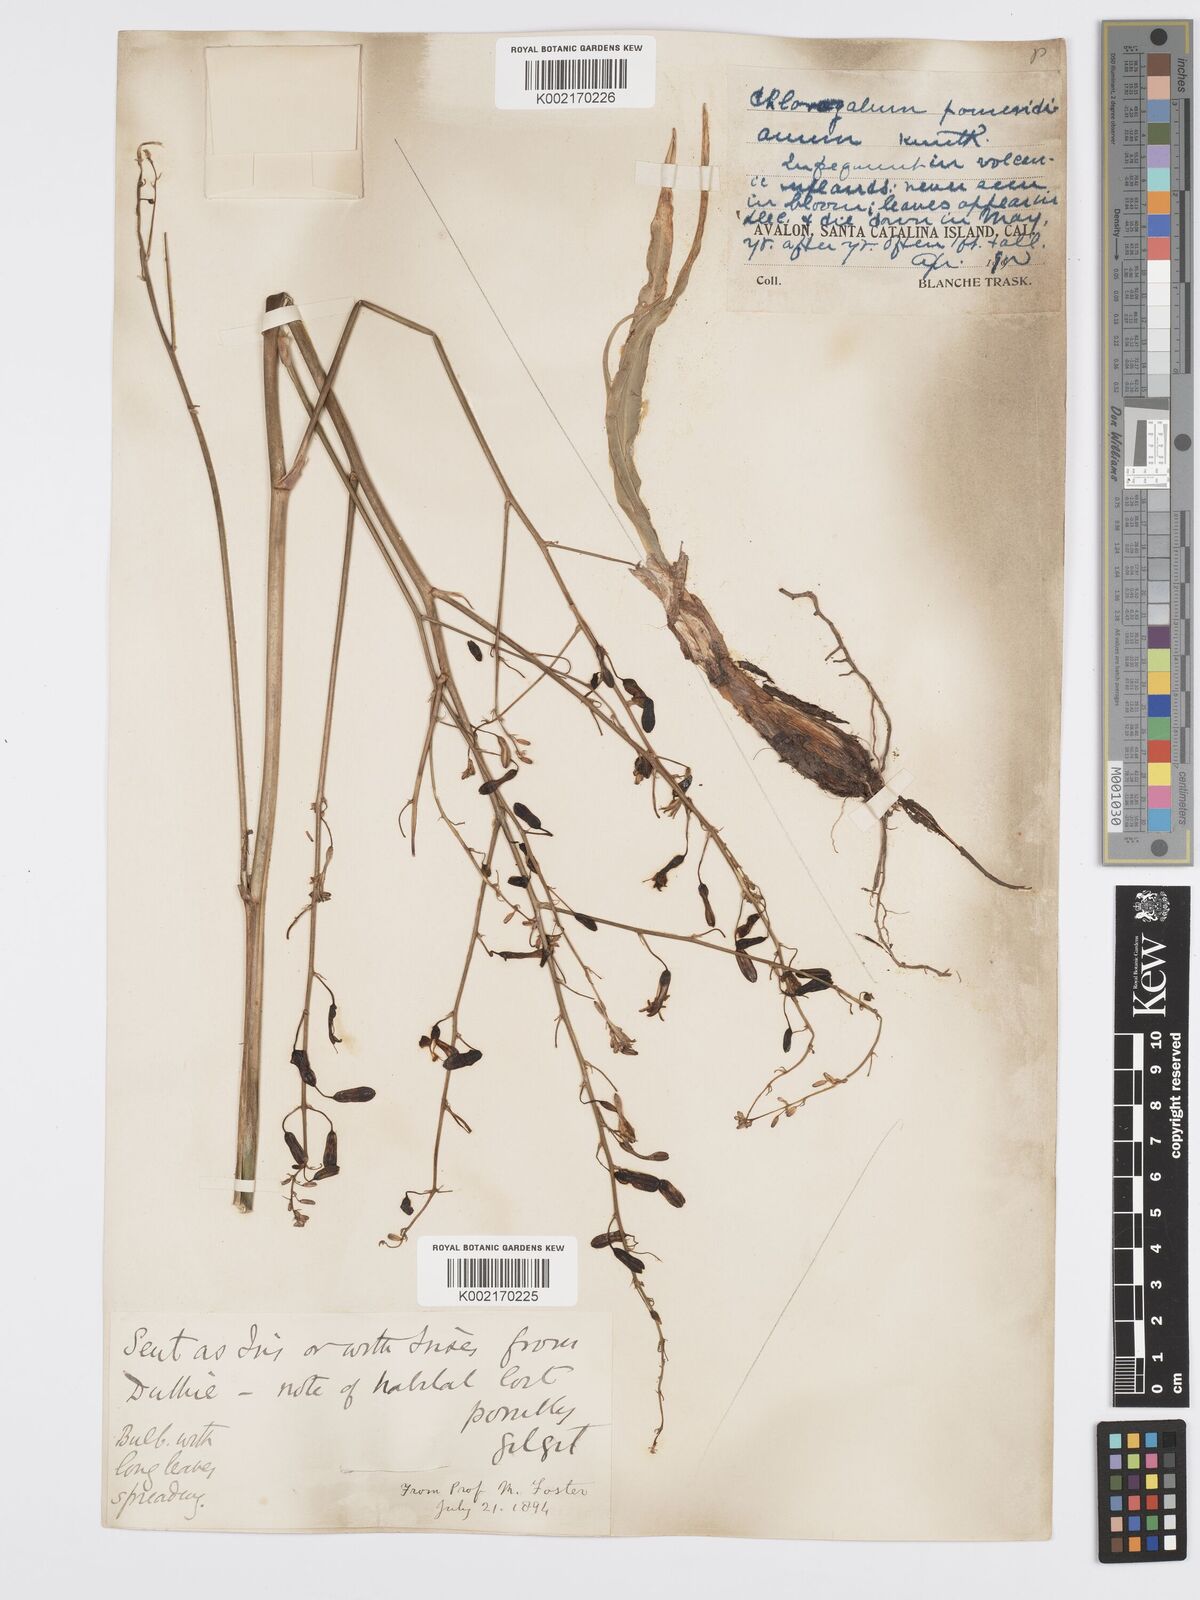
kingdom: Plantae
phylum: Tracheophyta
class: Liliopsida
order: Asparagales
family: Asparagaceae
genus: Chlorogalum
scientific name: Chlorogalum pomeridianum
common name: Amole
